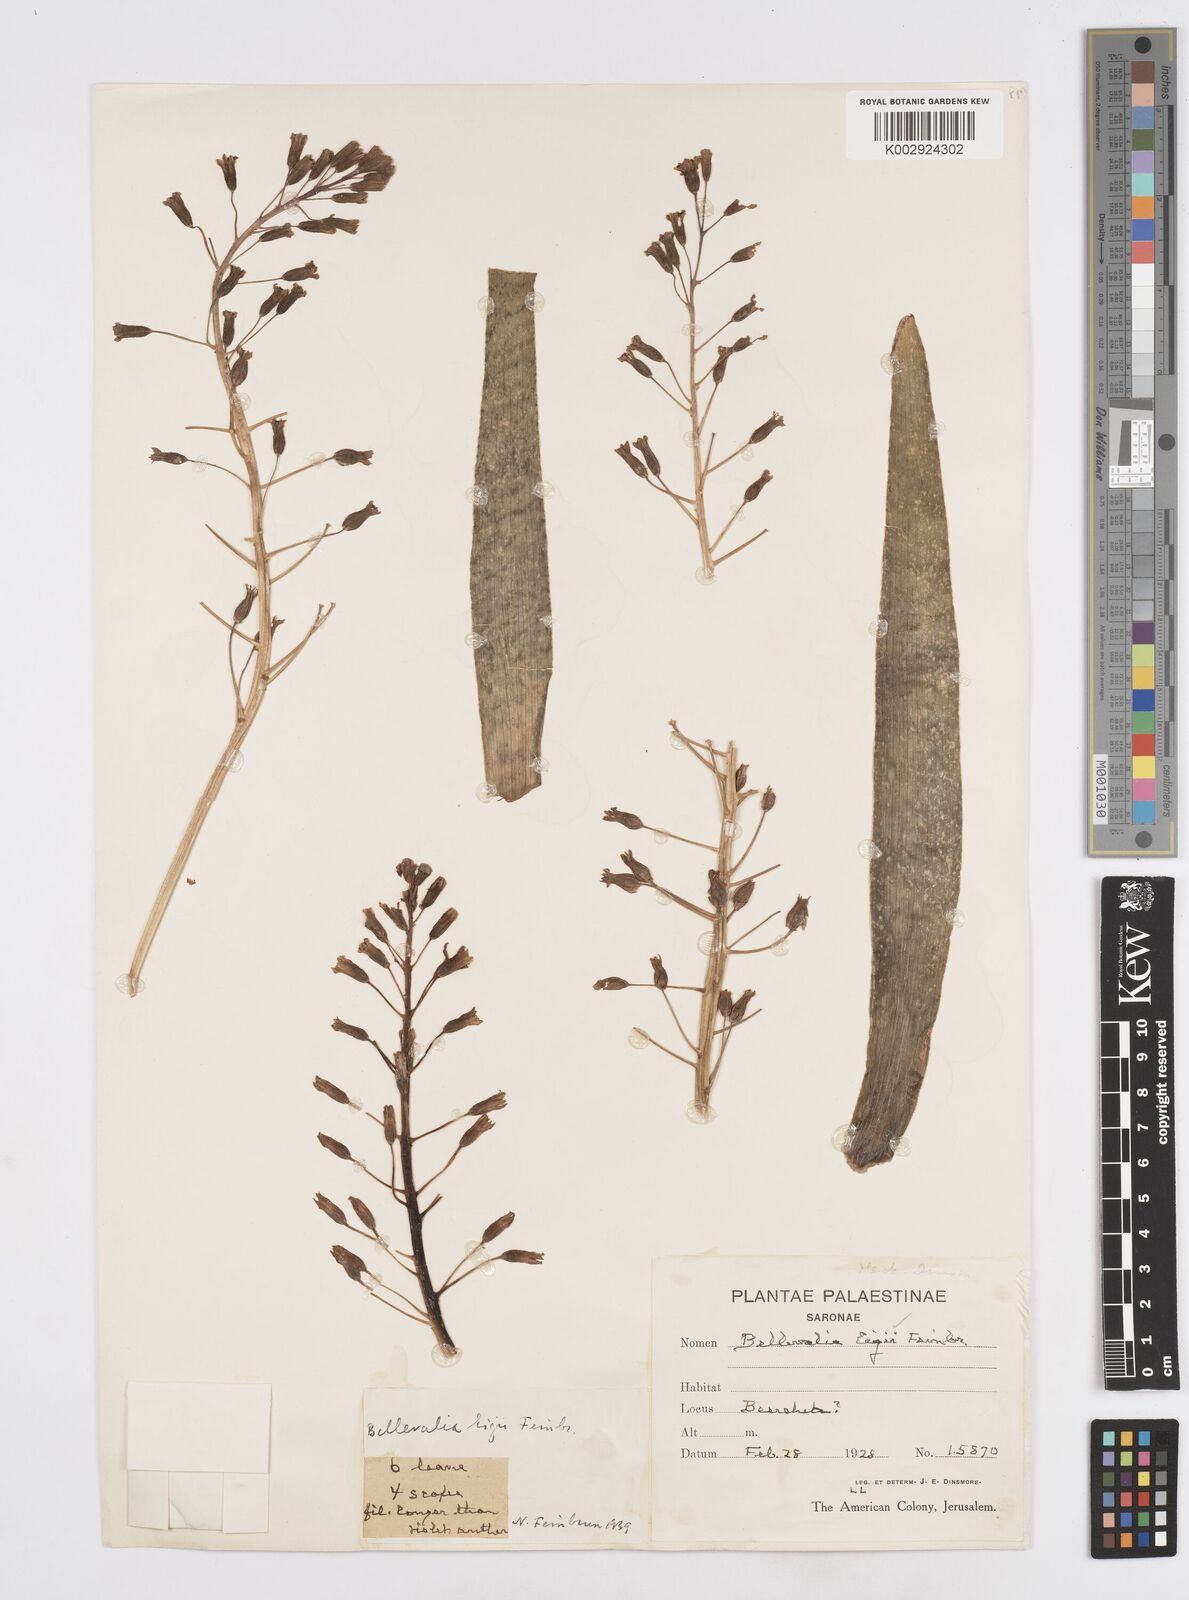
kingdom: Plantae
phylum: Tracheophyta
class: Liliopsida
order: Asparagales
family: Asparagaceae
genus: Bellevalia
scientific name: Bellevalia eigii
